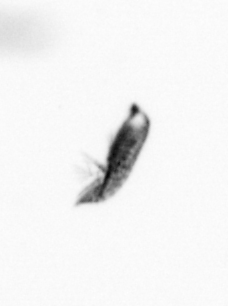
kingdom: Animalia
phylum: Arthropoda
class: Copepoda
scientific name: Copepoda
